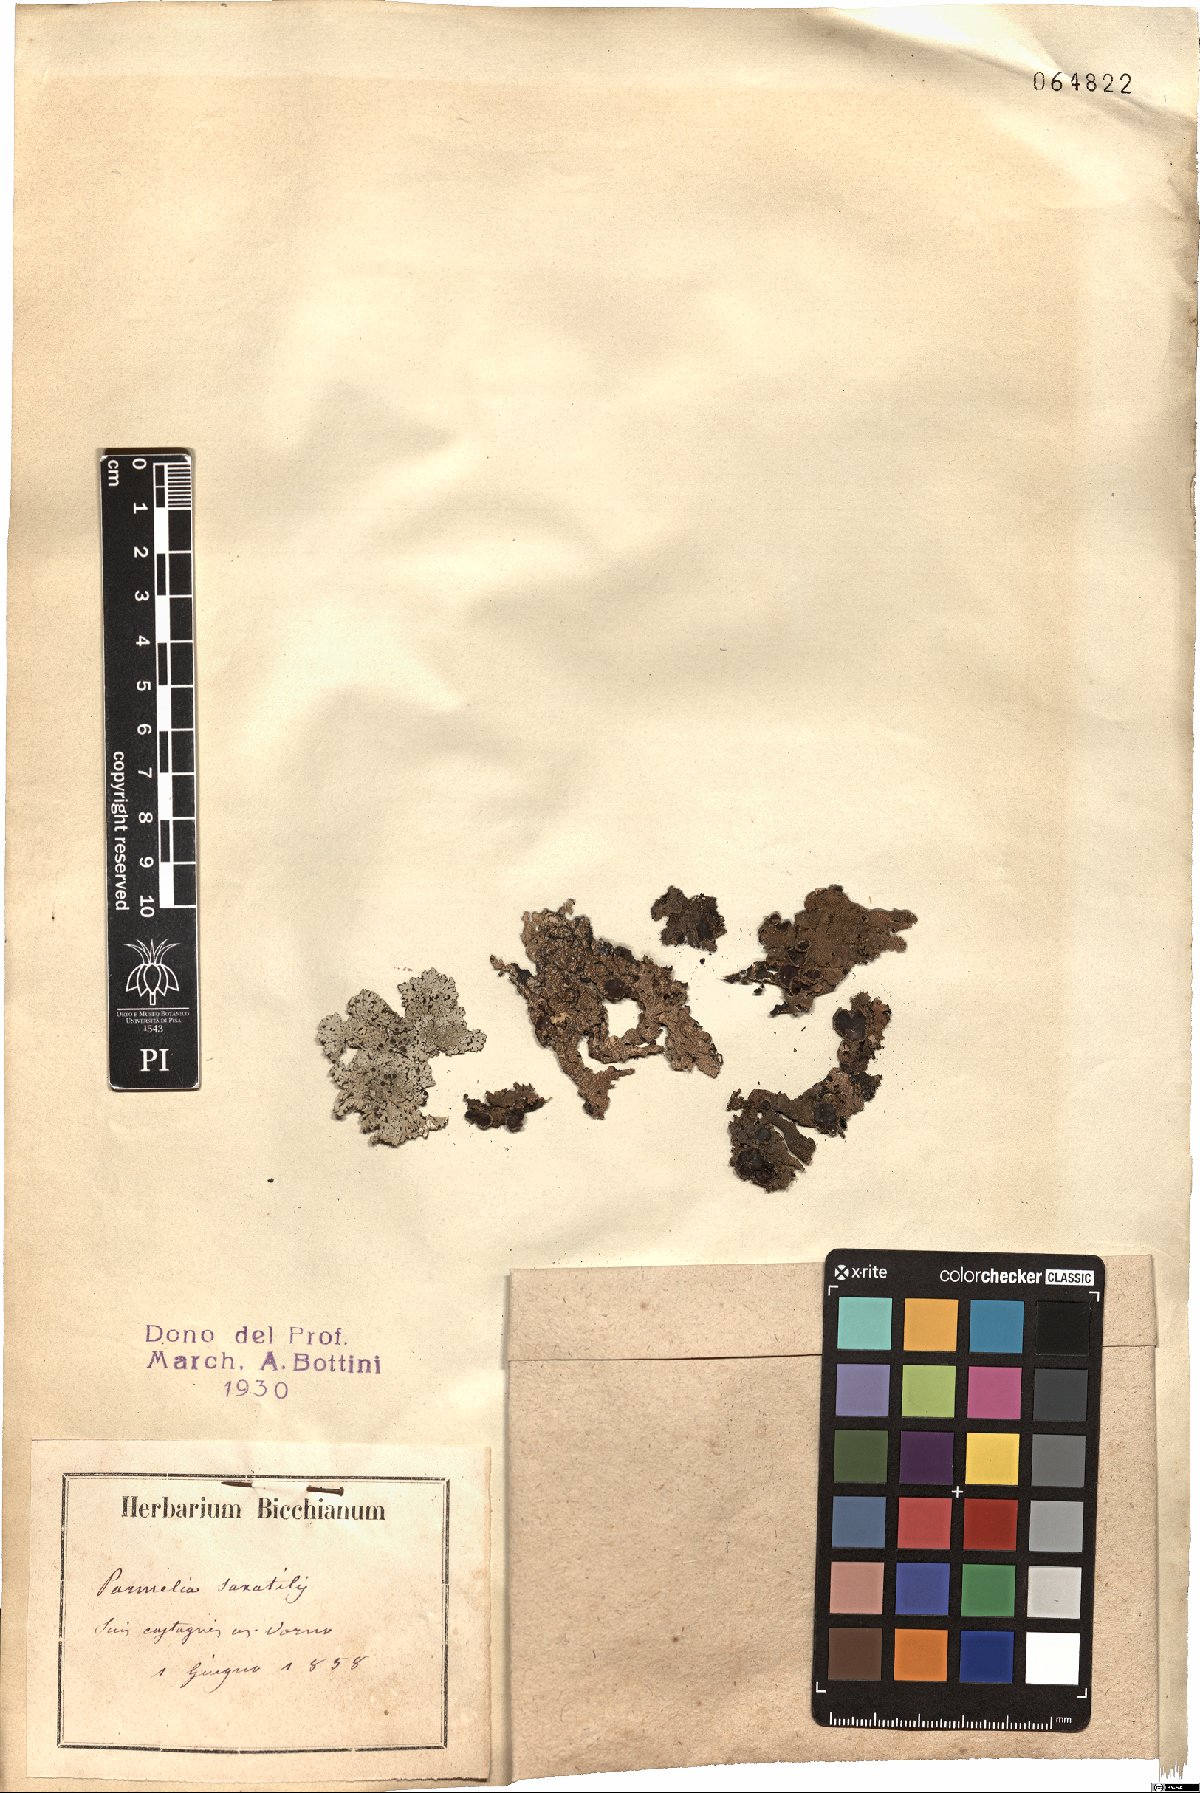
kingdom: Fungi
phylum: Ascomycota
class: Lecanoromycetes
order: Lecanorales
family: Parmeliaceae
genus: Parmelia
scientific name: Parmelia saxatilis
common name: Salted shield lichen
